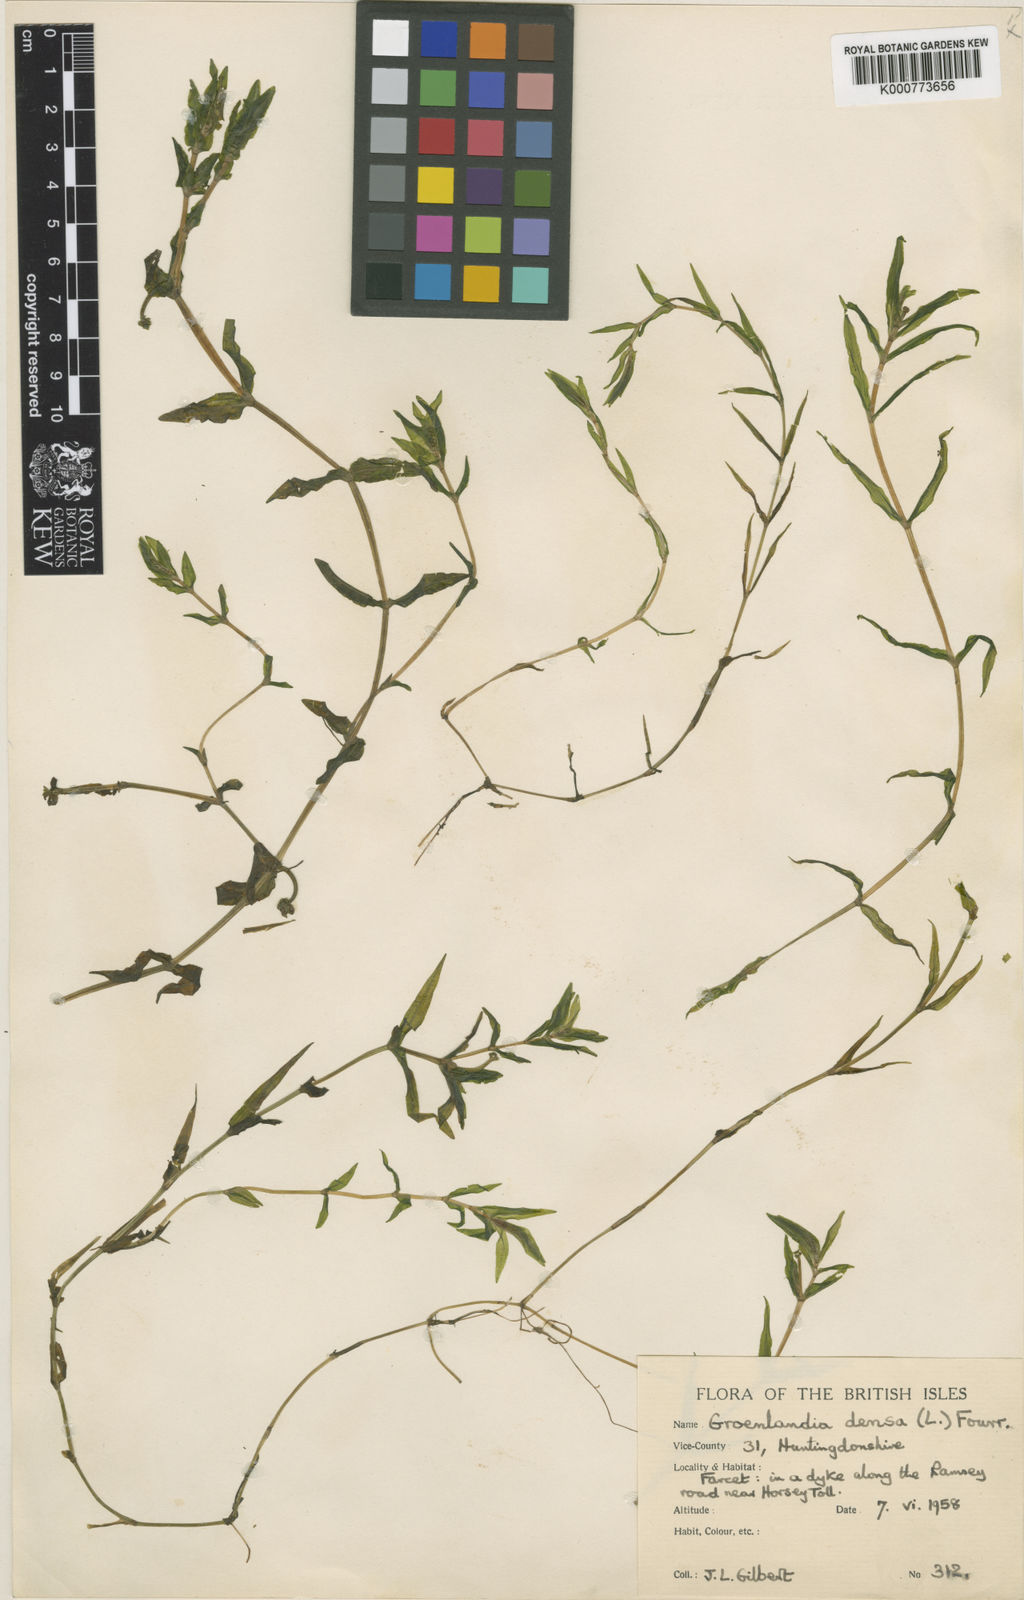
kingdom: Plantae
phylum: Tracheophyta
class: Liliopsida
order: Alismatales
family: Potamogetonaceae
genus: Groenlandia
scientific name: Groenlandia densa
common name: Opposite-leaved pondweed
